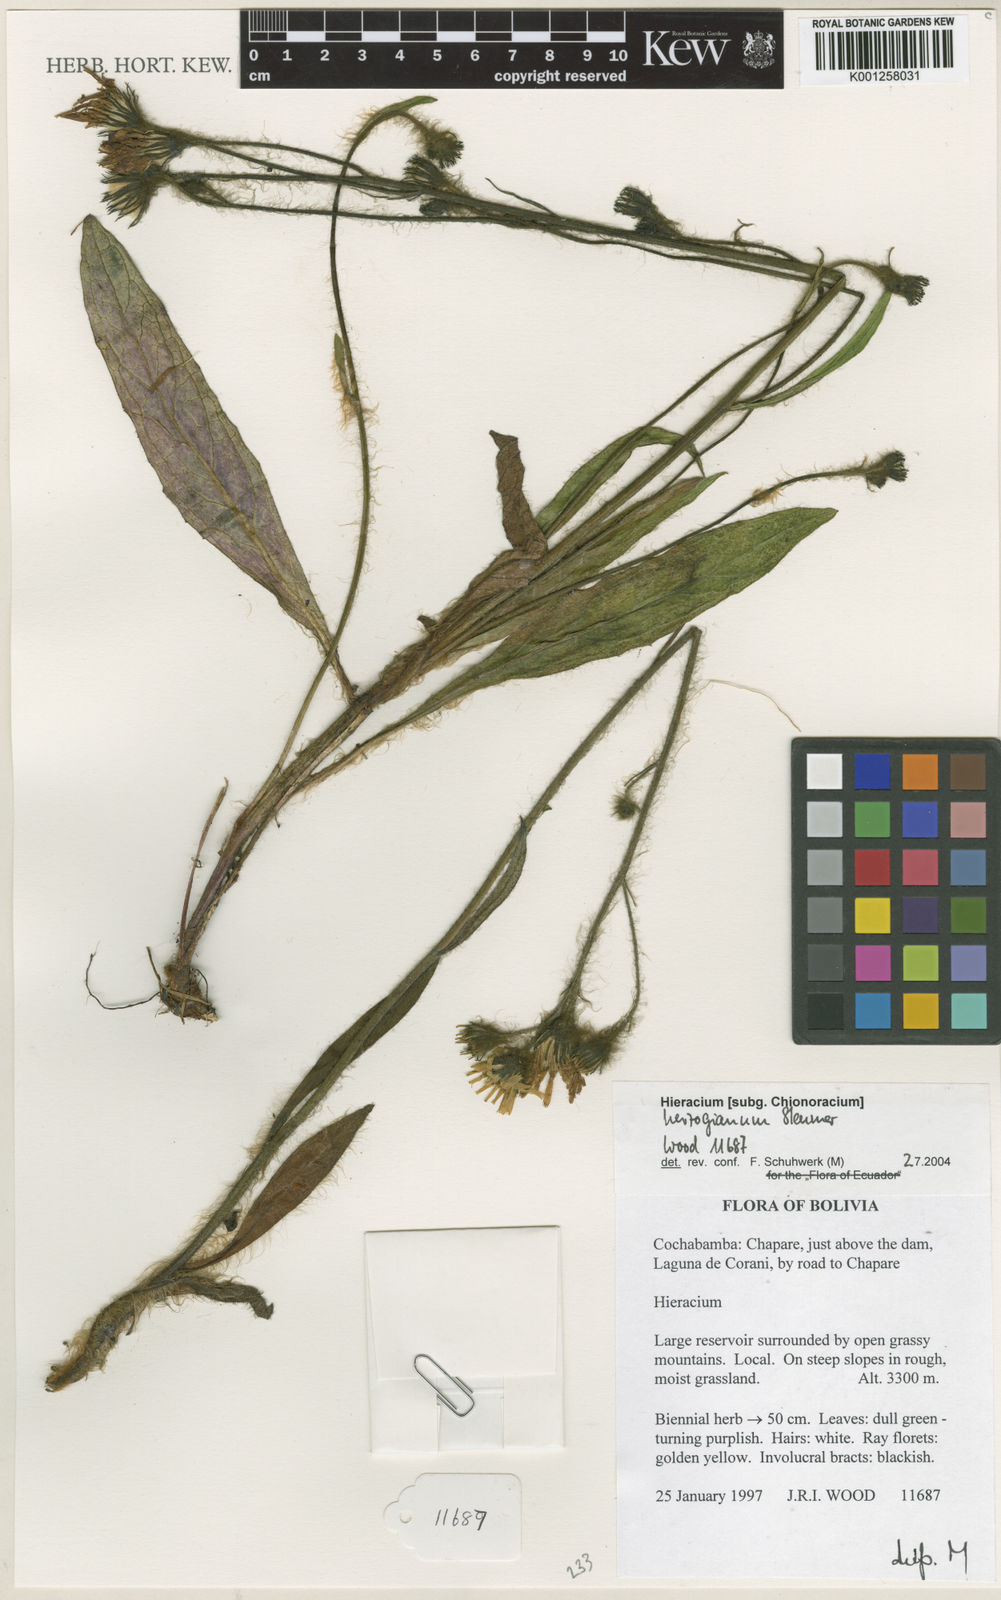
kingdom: Plantae
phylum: Tracheophyta
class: Magnoliopsida
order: Asterales
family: Asteraceae
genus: Hieracium
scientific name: Hieracium herzogianum
